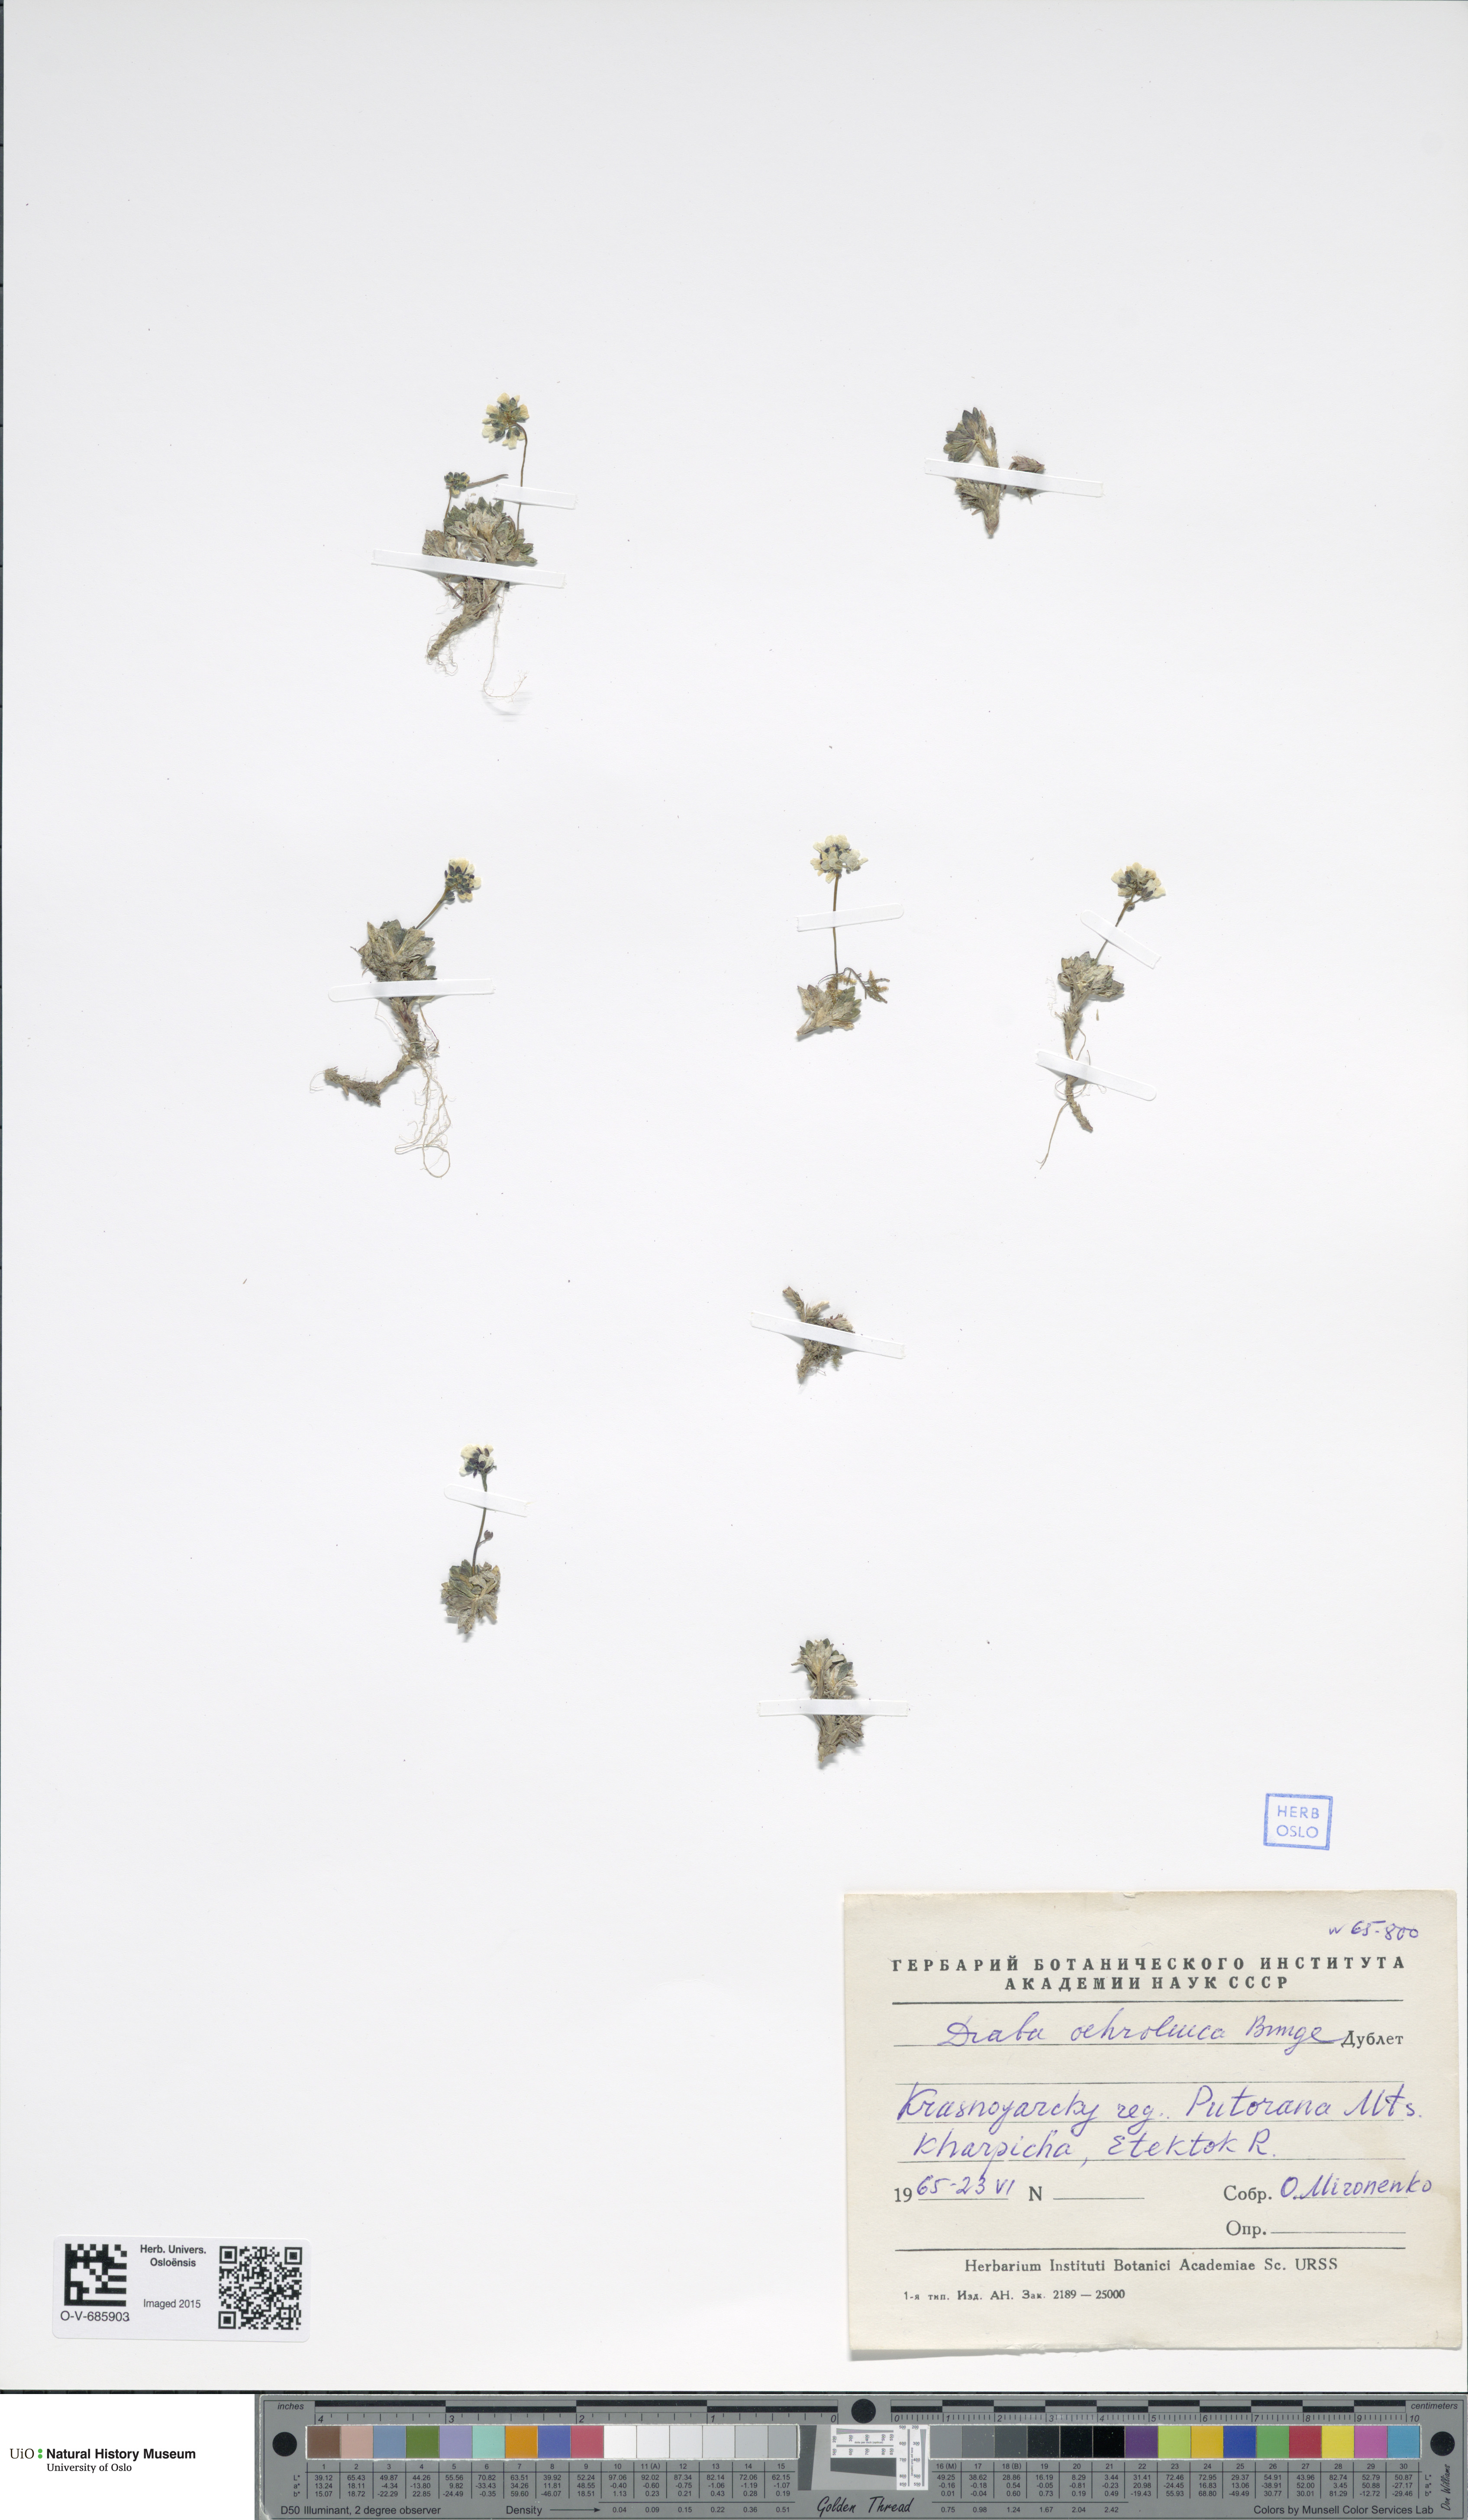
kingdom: Plantae
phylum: Tracheophyta
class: Magnoliopsida
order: Brassicales
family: Brassicaceae
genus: Draba
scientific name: Draba ochroleuca
